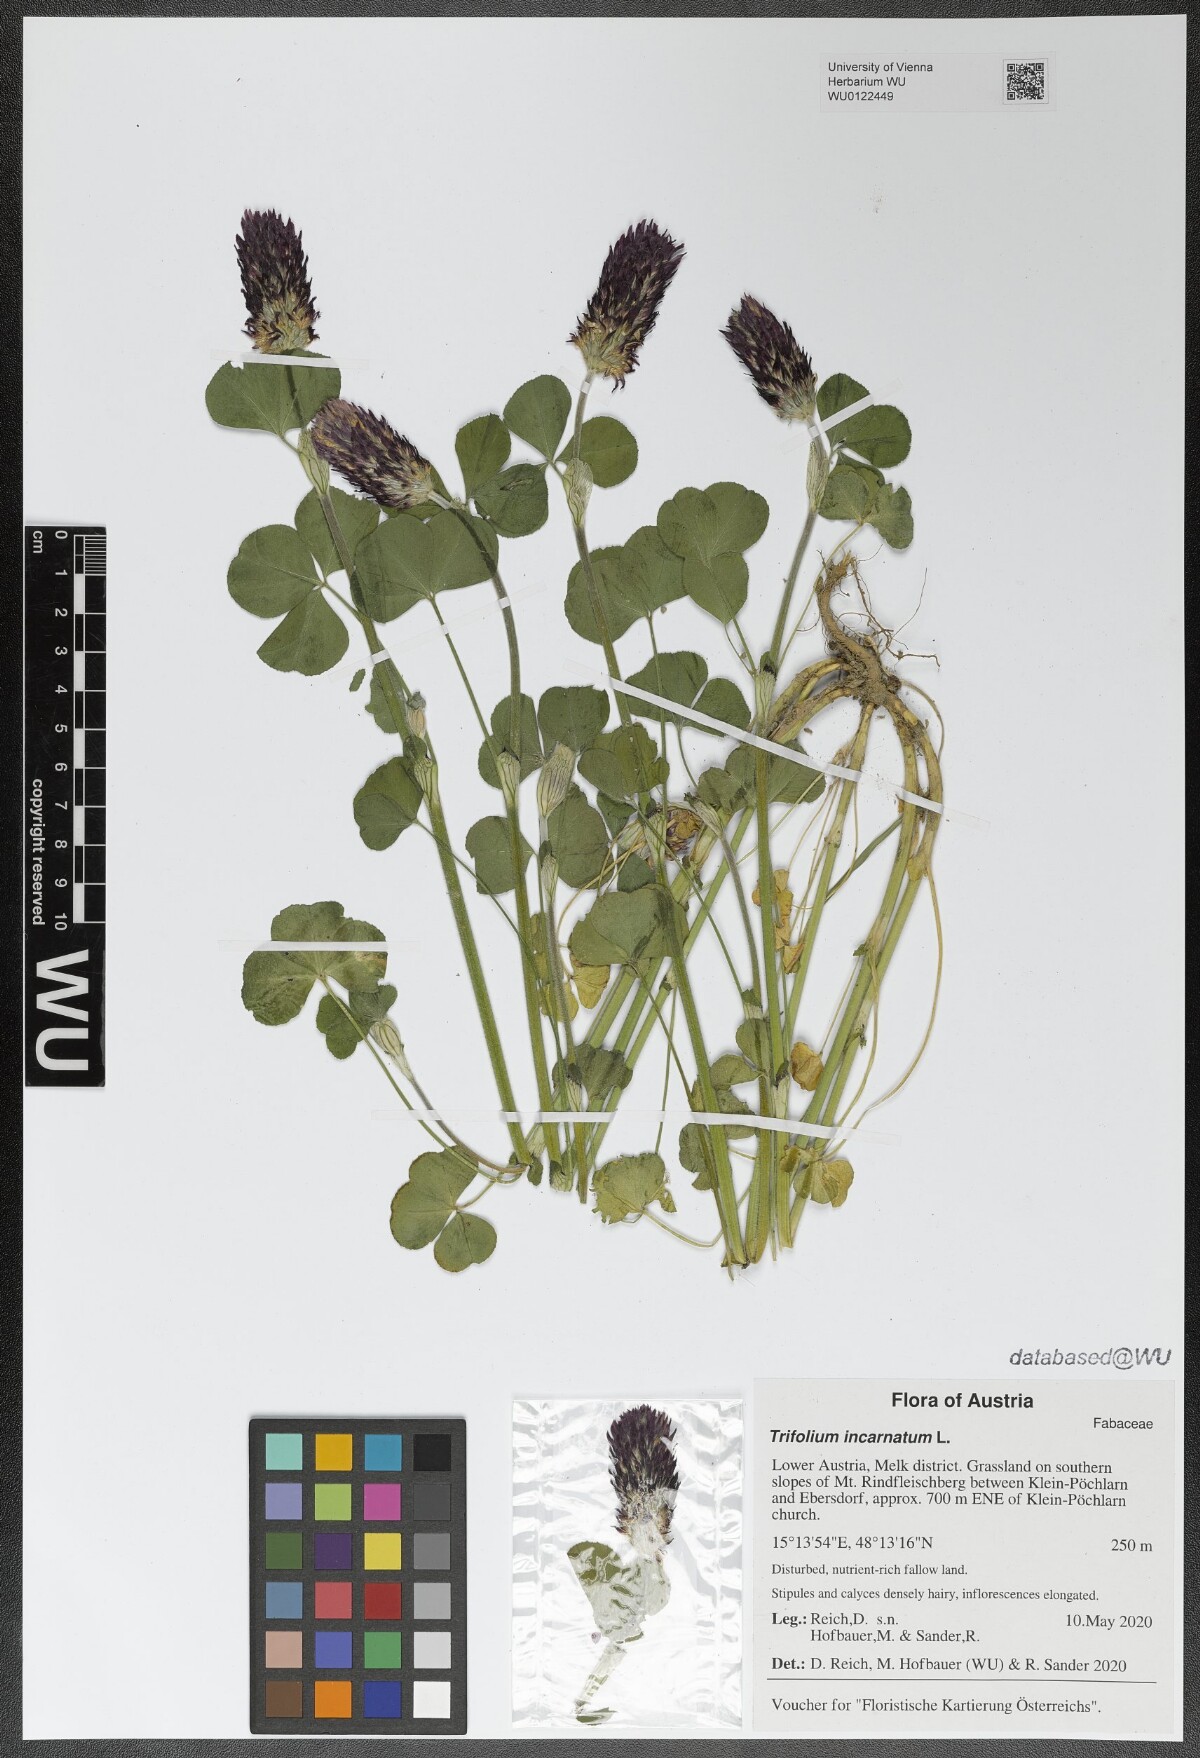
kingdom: Plantae
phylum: Tracheophyta
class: Magnoliopsida
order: Fabales
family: Fabaceae
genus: Trifolium
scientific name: Trifolium incarnatum
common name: Crimson clover
